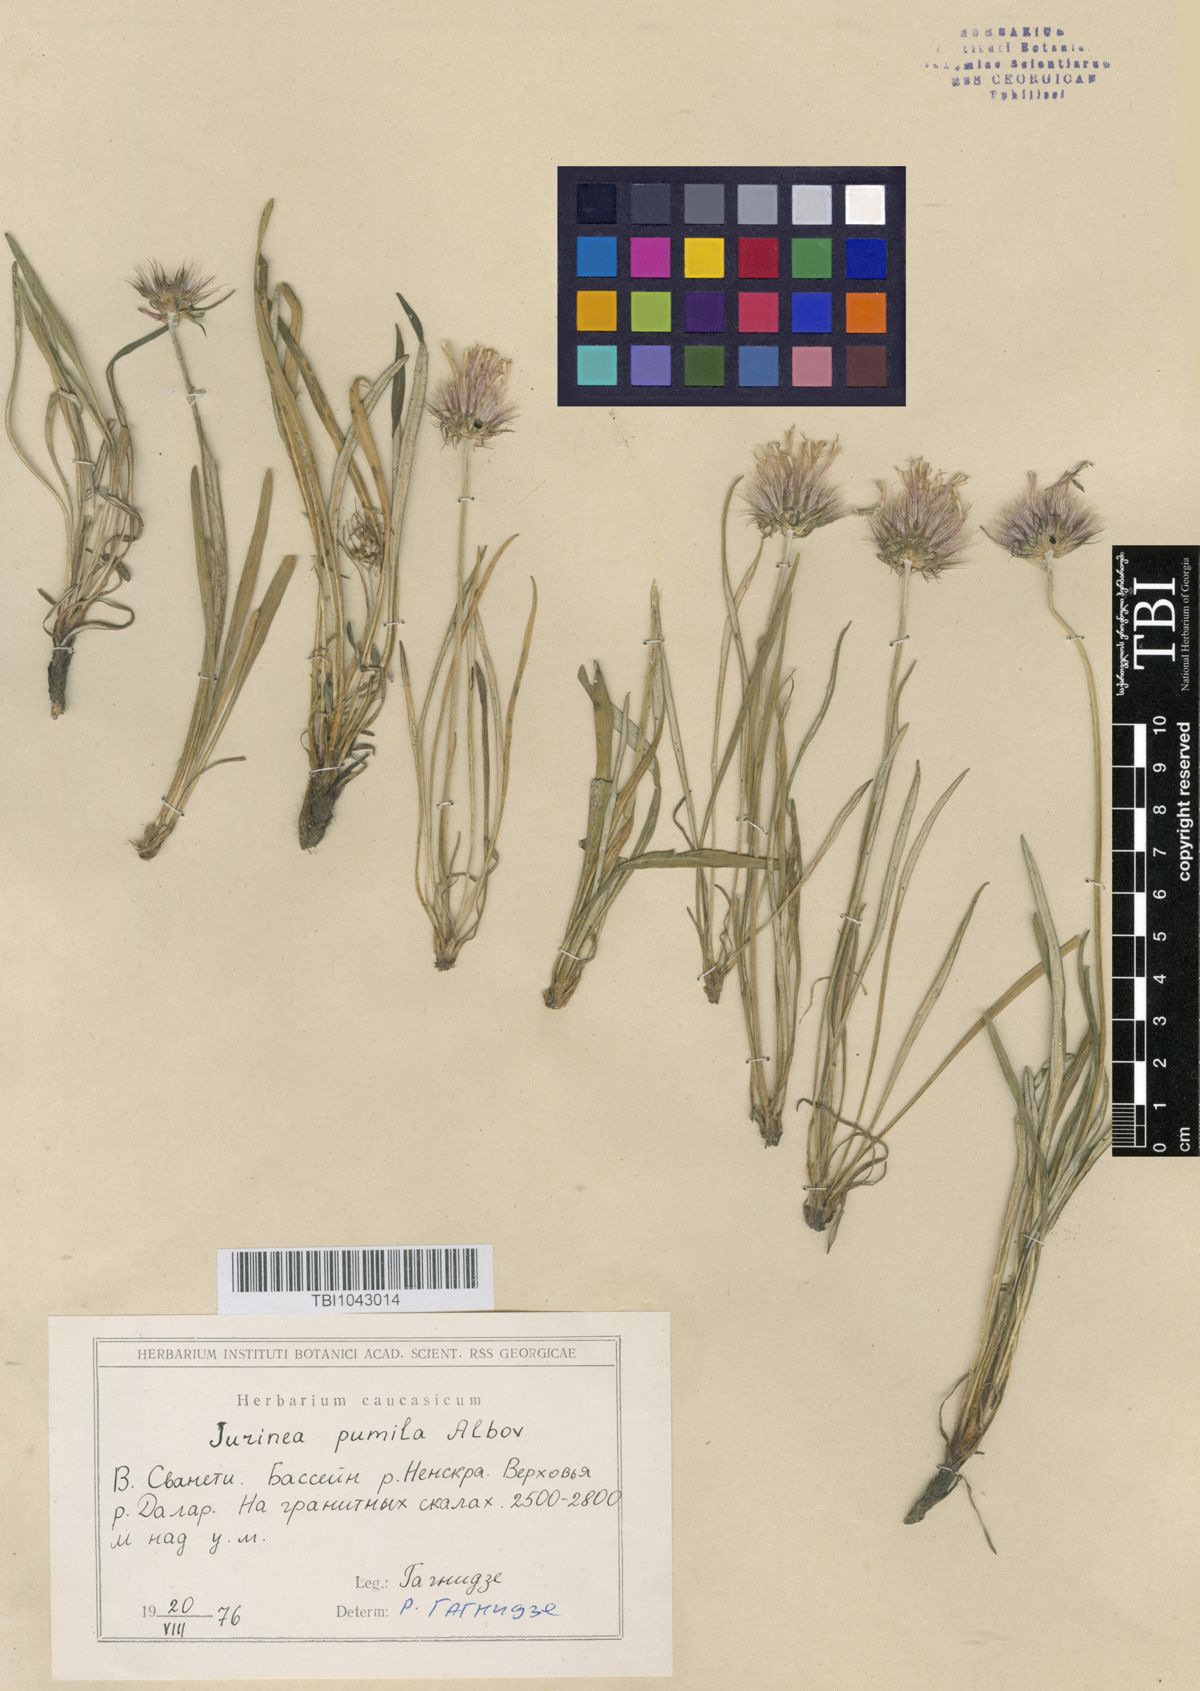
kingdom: Plantae
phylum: Tracheophyta
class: Magnoliopsida
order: Asterales
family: Asteraceae
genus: Jurinea
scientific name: Jurinea pumila
